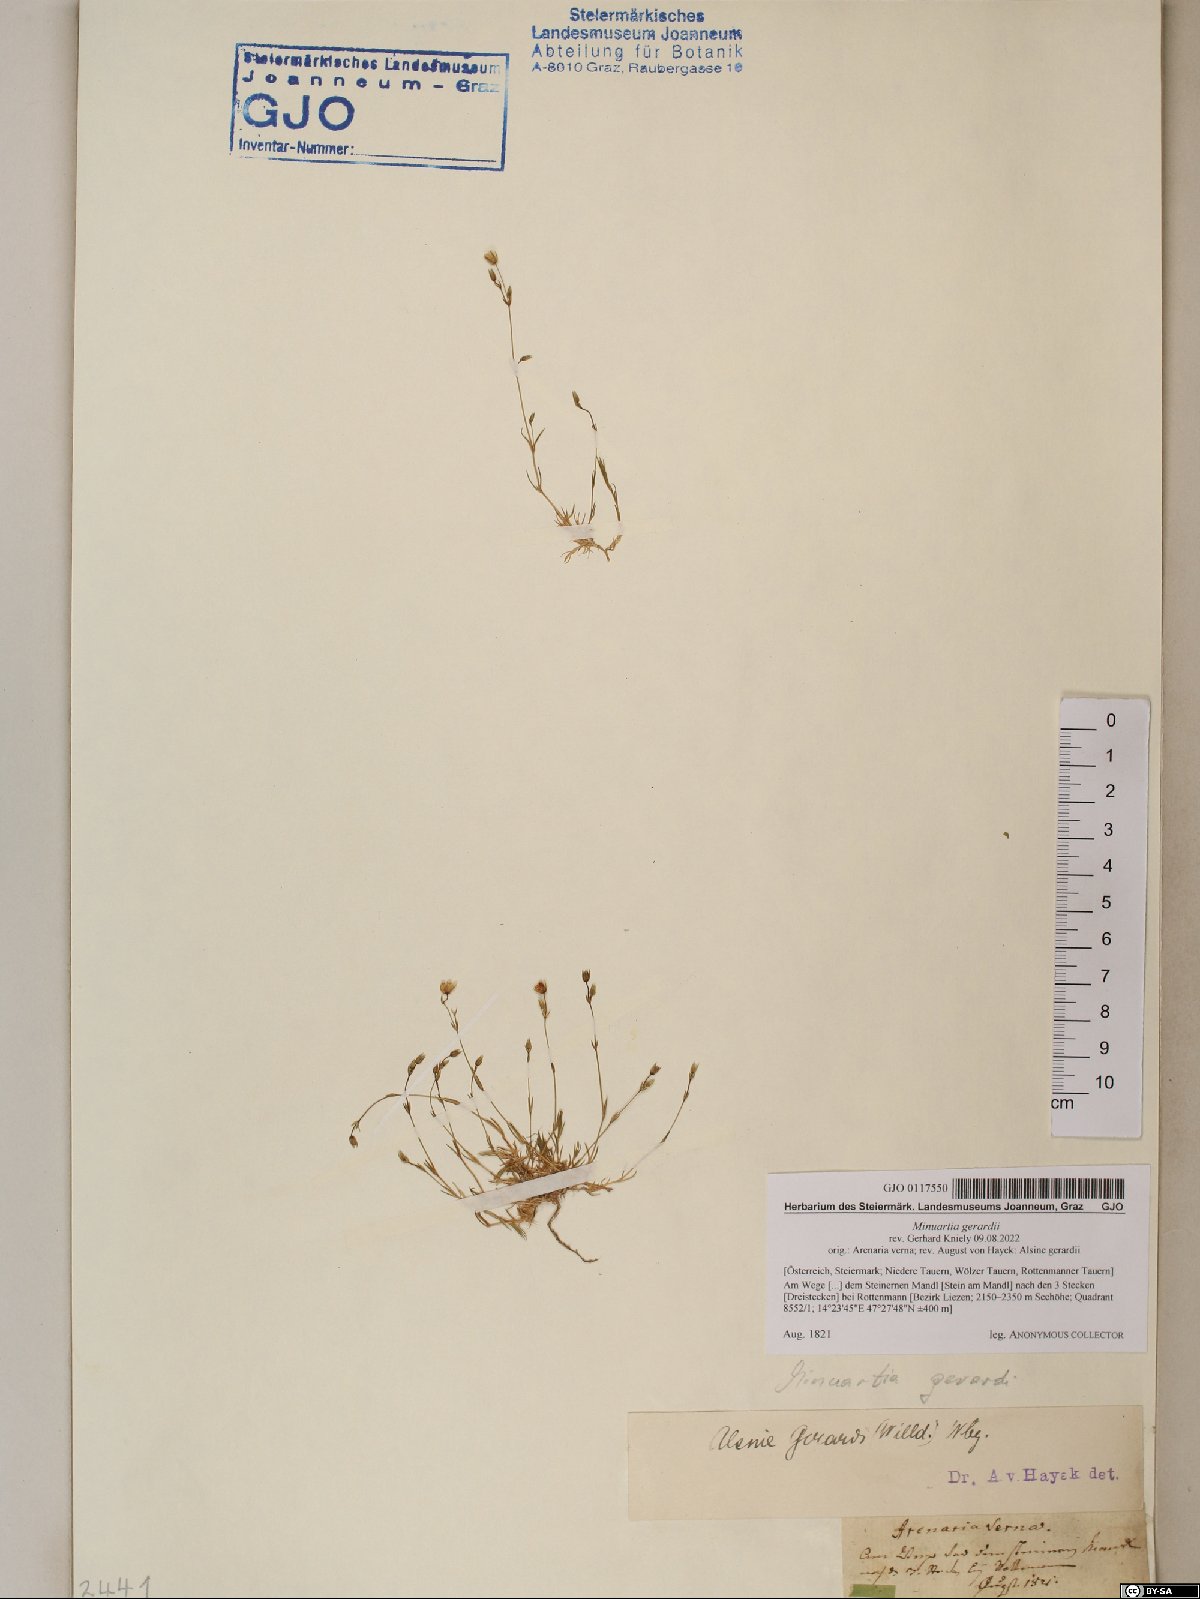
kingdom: Plantae
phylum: Tracheophyta
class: Magnoliopsida
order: Caryophyllales
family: Caryophyllaceae
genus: Sabulina
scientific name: Sabulina verna
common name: Spring sandwort
